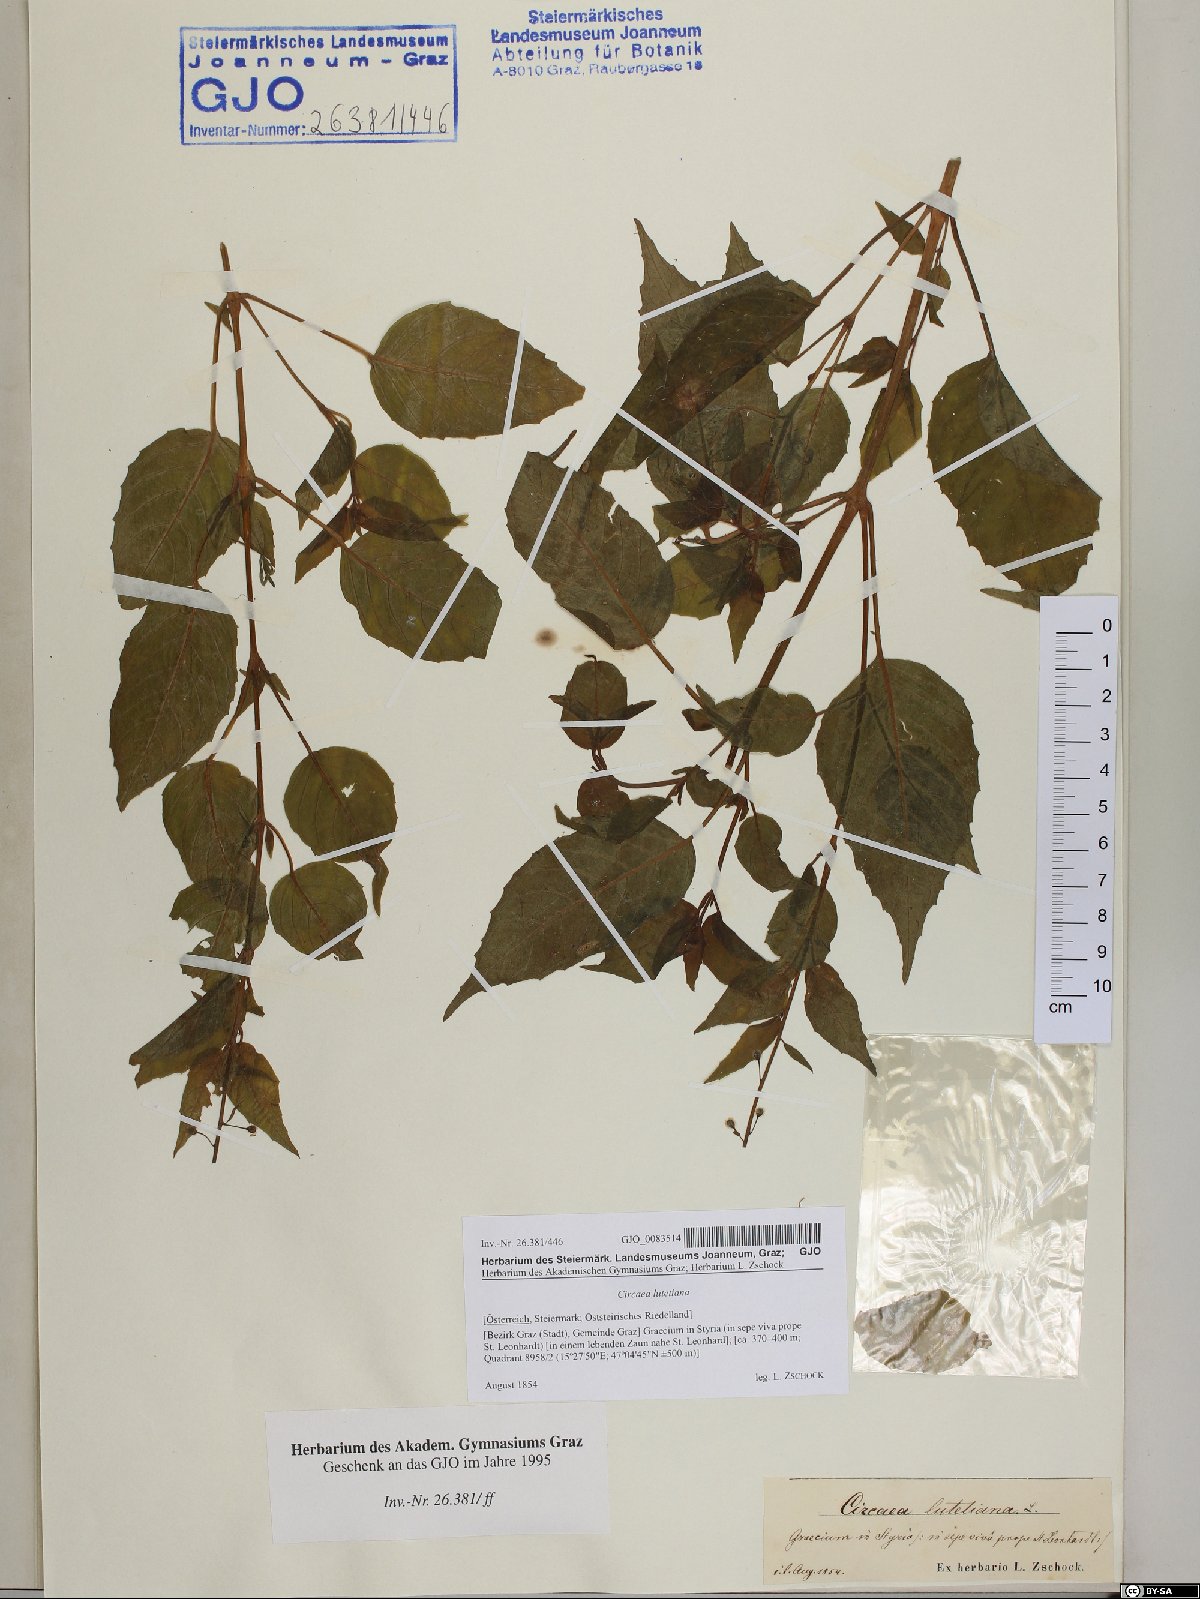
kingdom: Plantae
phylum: Tracheophyta
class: Magnoliopsida
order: Myrtales
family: Onagraceae
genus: Circaea
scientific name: Circaea lutetiana
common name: Enchanter's-nightshade
